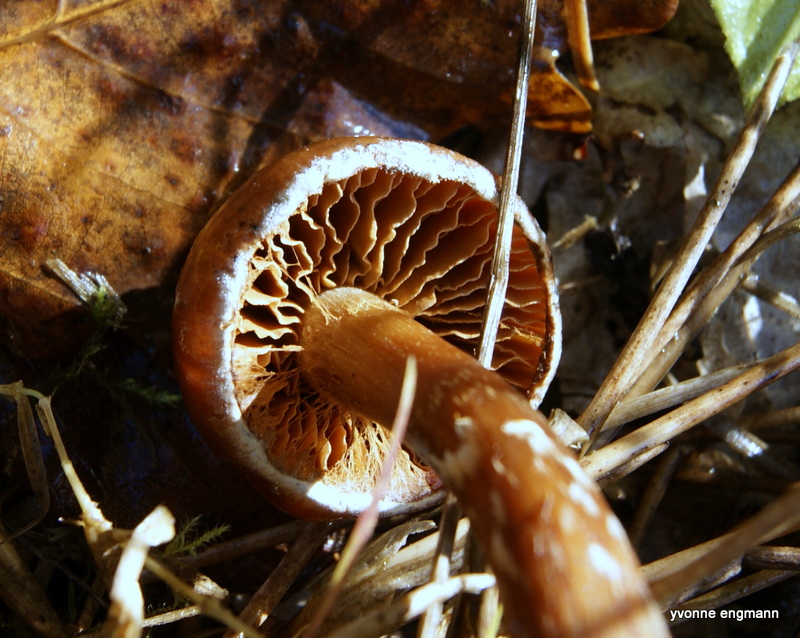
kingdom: Fungi
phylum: Basidiomycota
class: Agaricomycetes
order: Agaricales
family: Cortinariaceae
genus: Cortinarius
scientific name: Cortinarius hinnuleus
